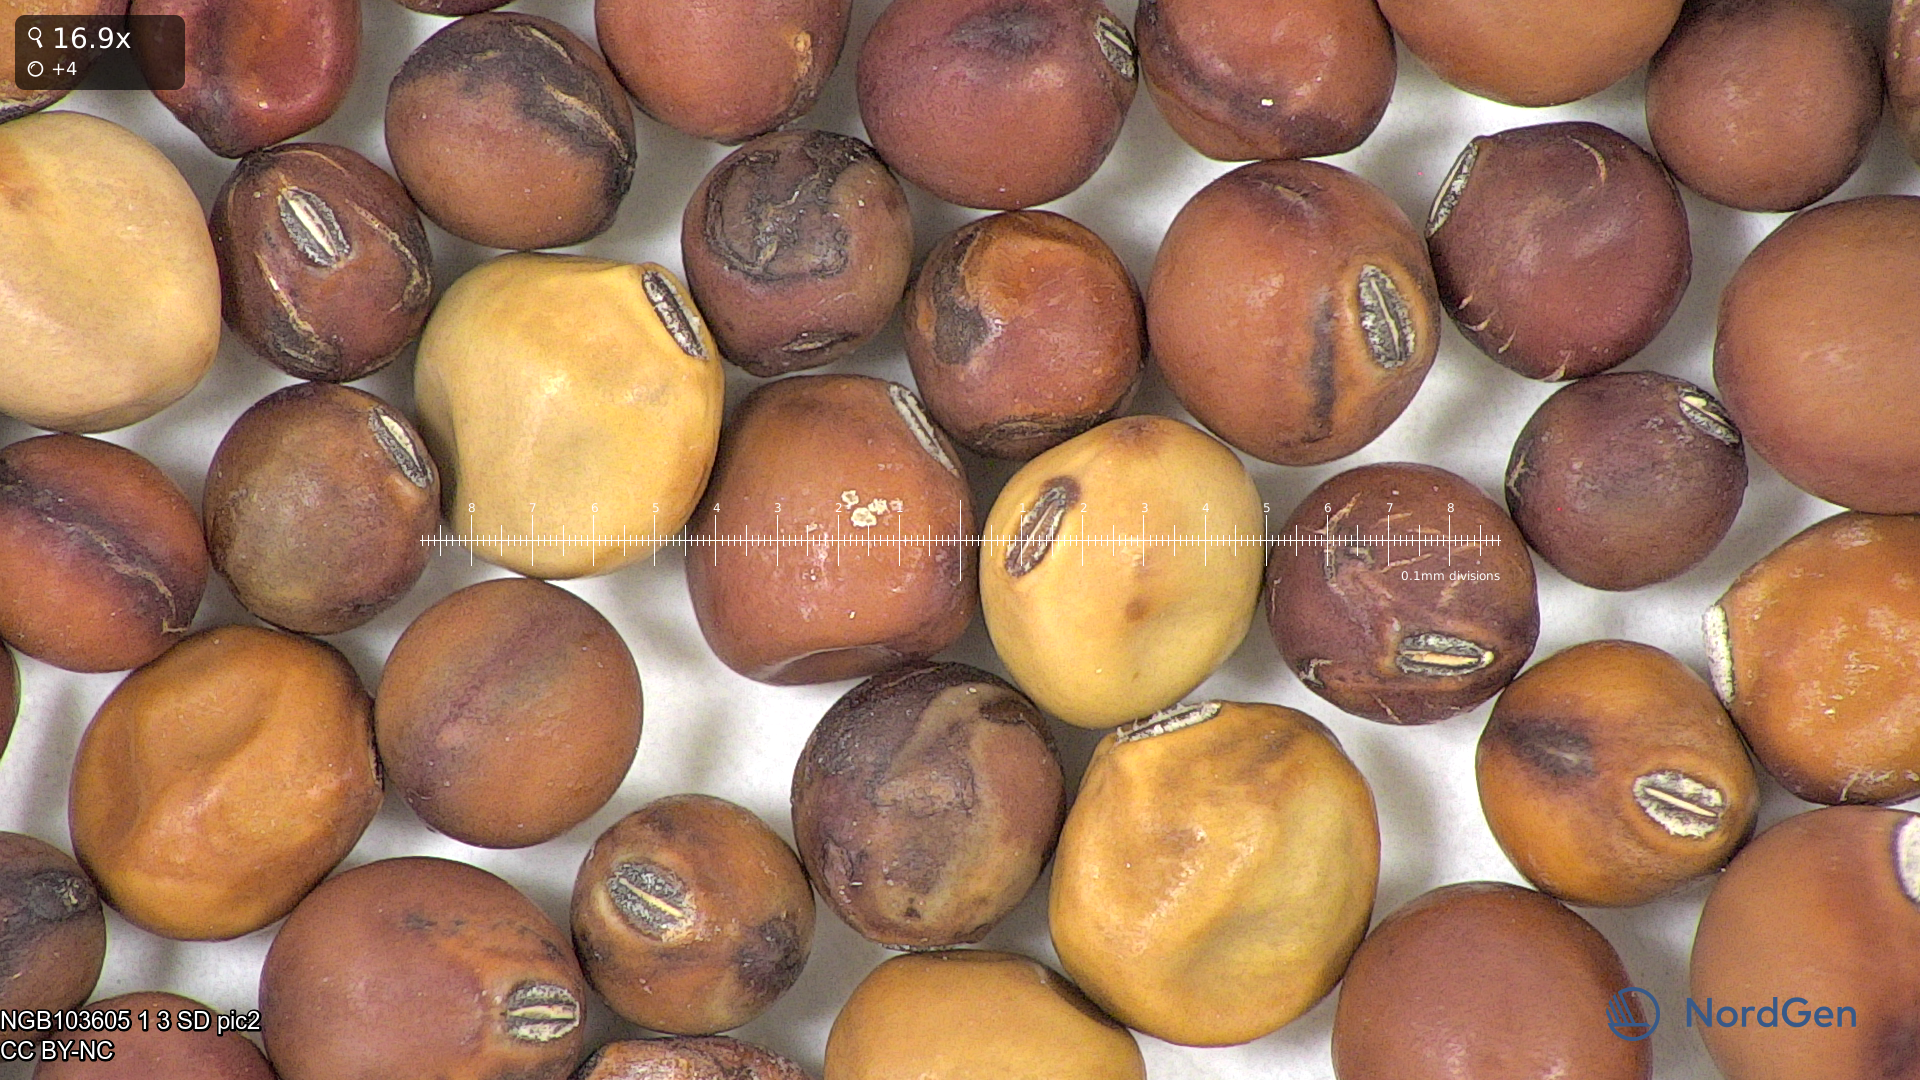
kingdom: Plantae
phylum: Tracheophyta
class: Magnoliopsida
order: Fabales
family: Fabaceae
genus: Lathyrus
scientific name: Lathyrus oleraceus
